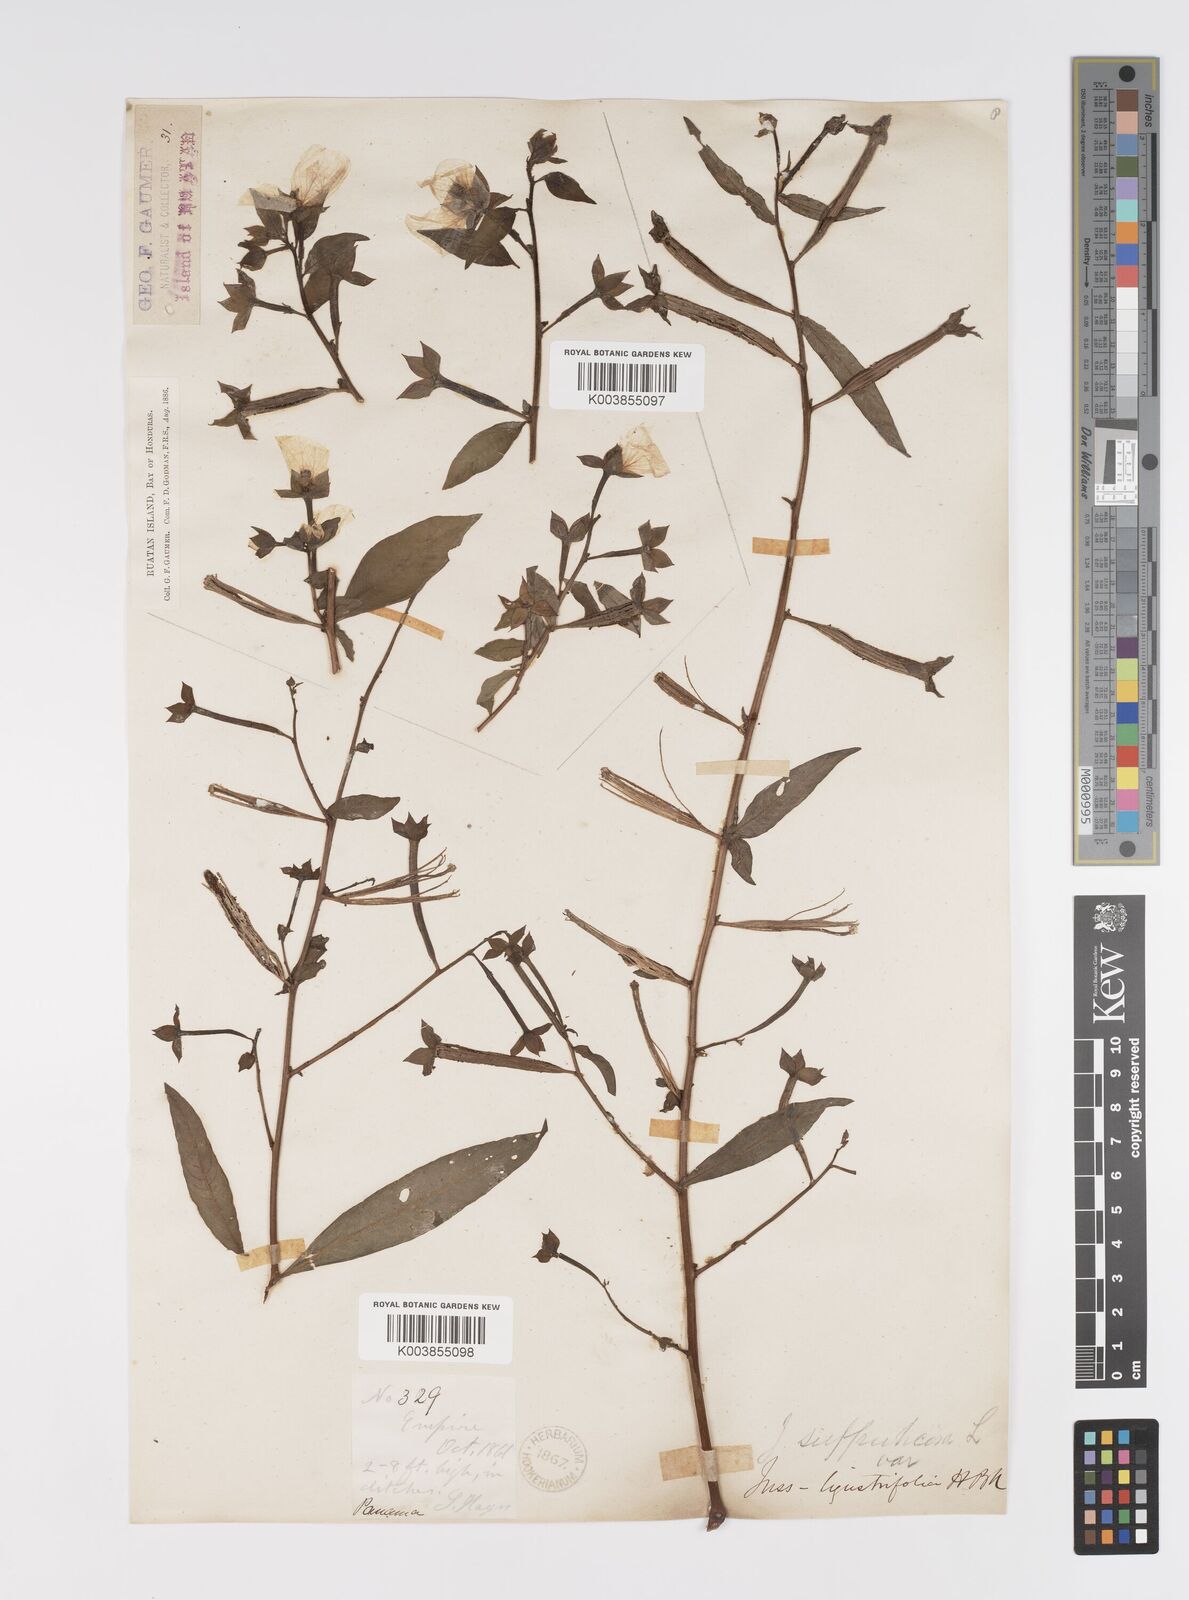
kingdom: Plantae
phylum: Tracheophyta
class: Magnoliopsida
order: Myrtales
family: Onagraceae
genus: Ludwigia
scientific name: Ludwigia octovalvis
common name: Water-primrose
